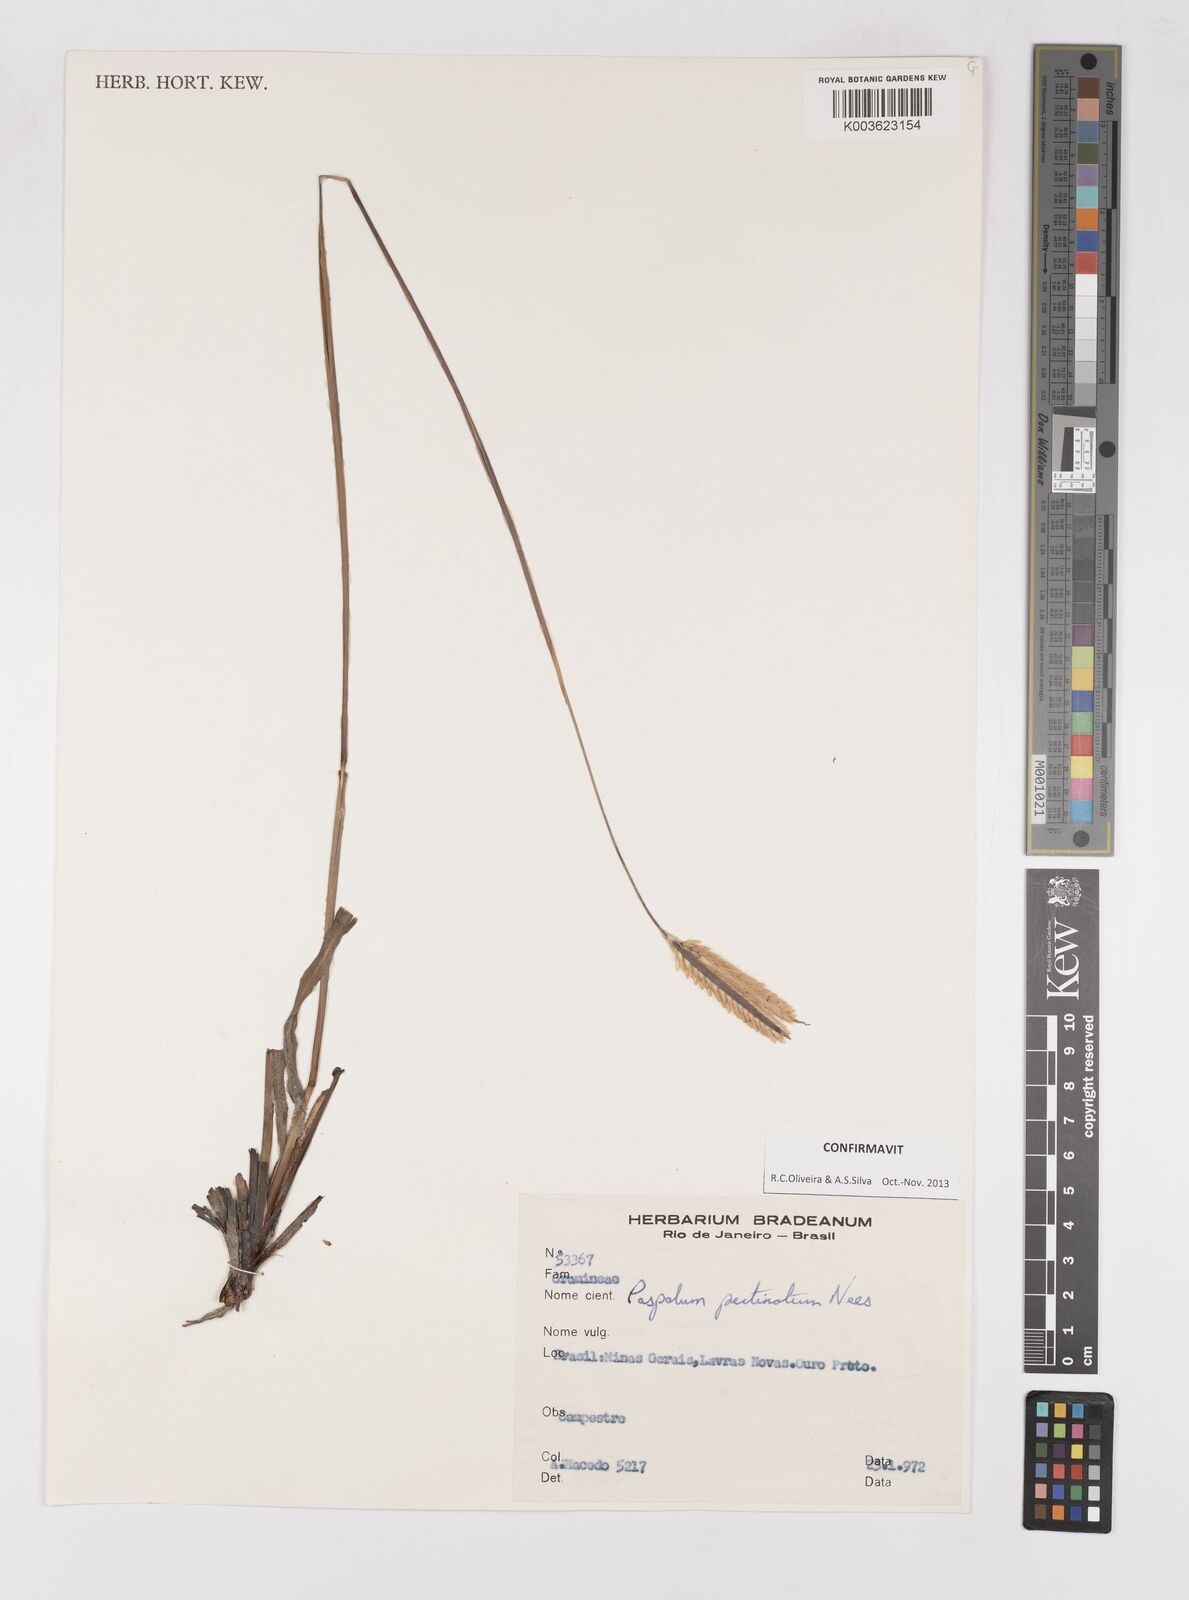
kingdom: Plantae
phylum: Tracheophyta
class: Liliopsida
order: Poales
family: Poaceae
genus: Paspalum
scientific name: Paspalum pectinatum
